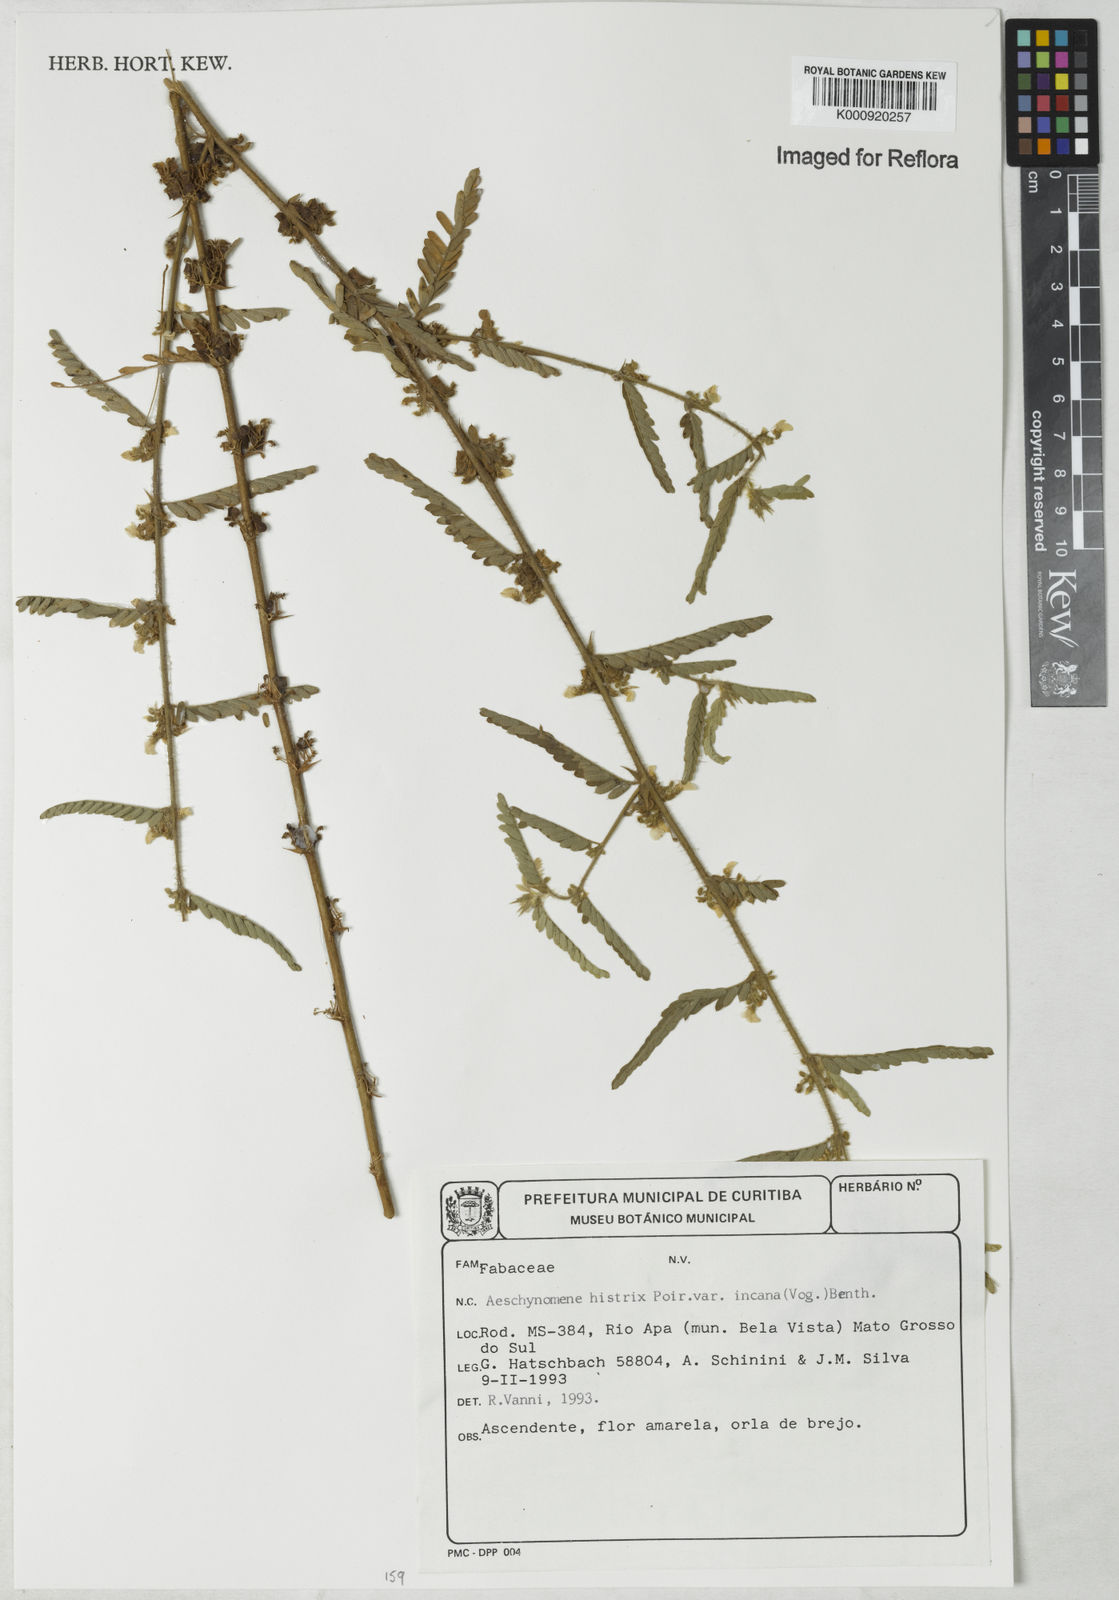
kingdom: Plantae
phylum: Tracheophyta
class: Magnoliopsida
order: Fabales
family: Fabaceae
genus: Ctenodon
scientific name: Ctenodon histrix
